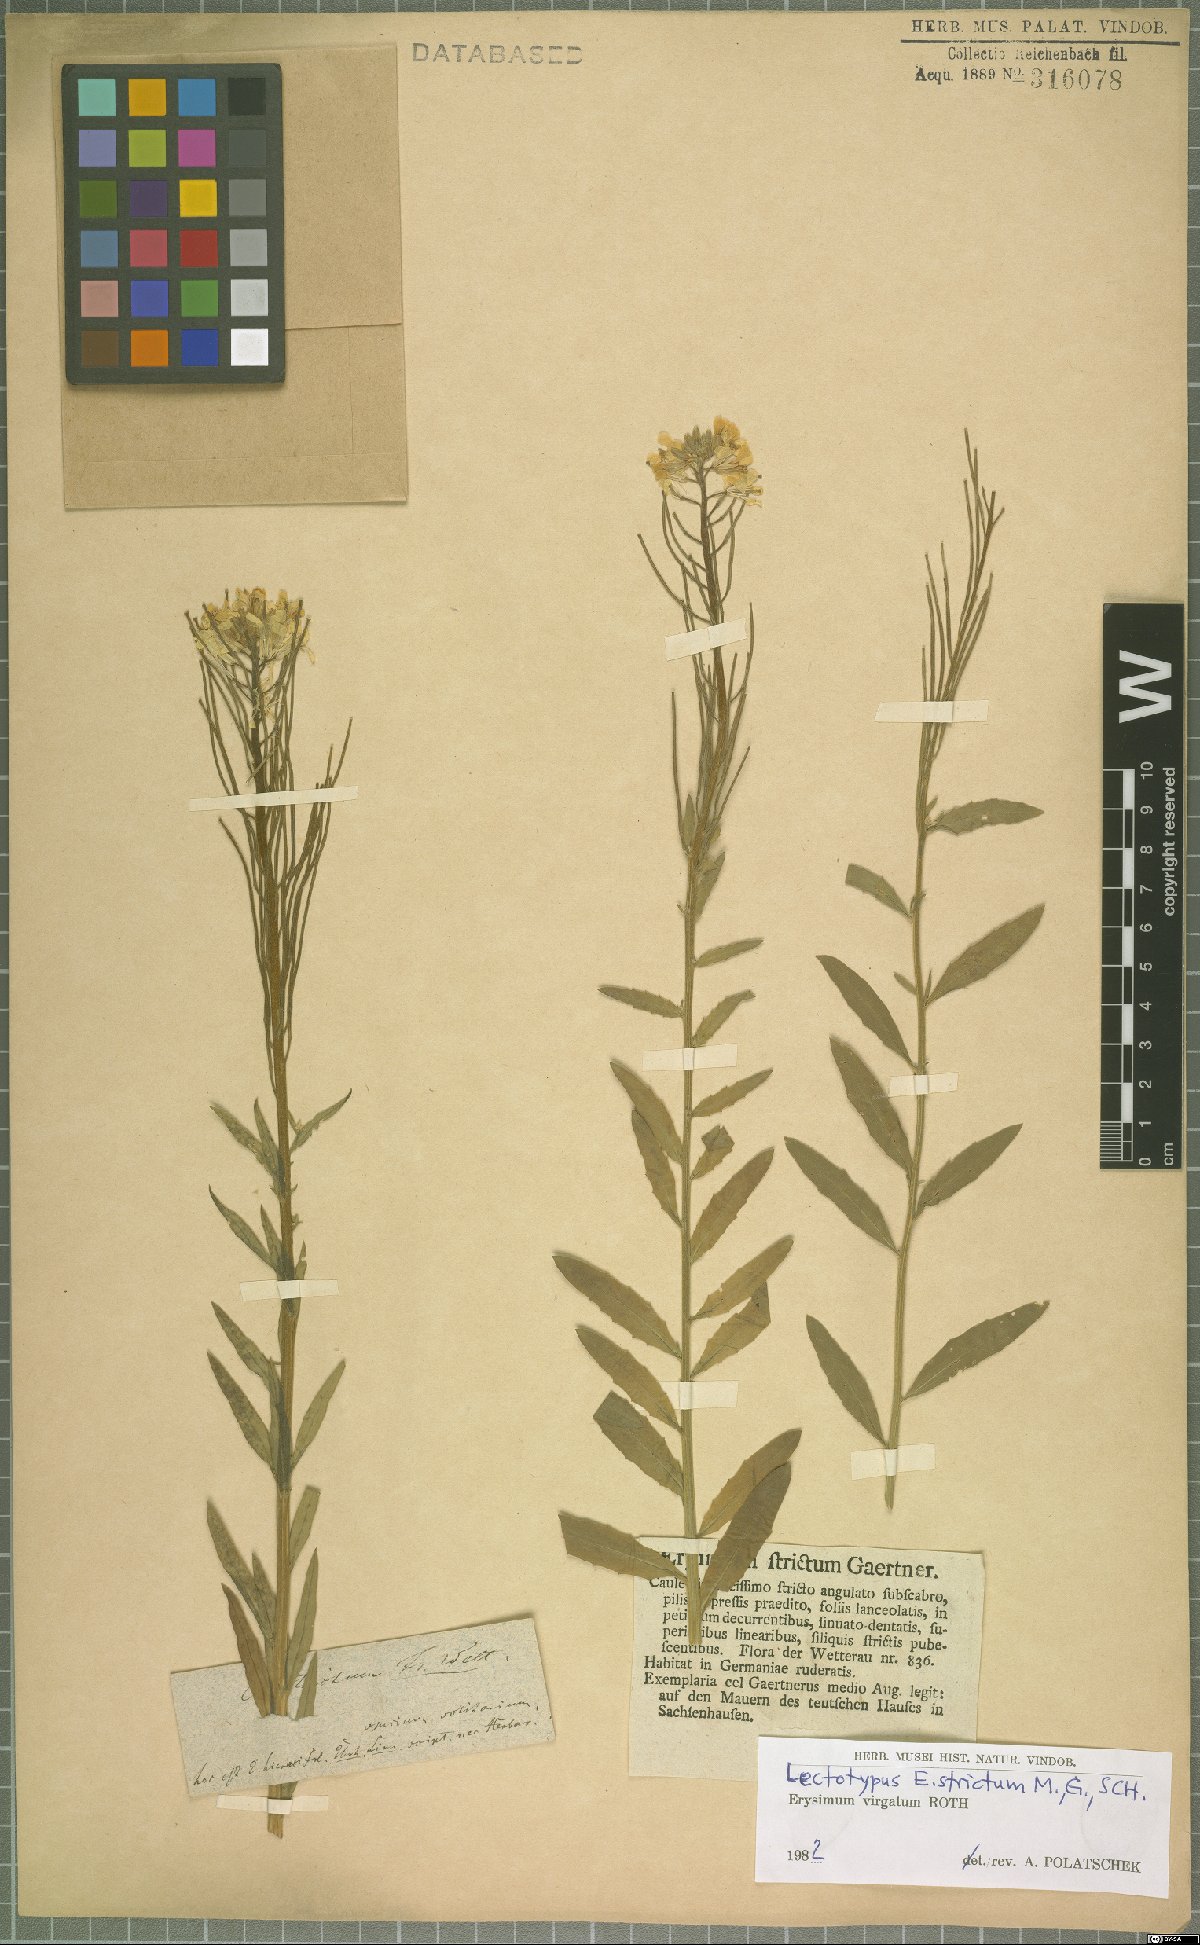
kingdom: Plantae
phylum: Tracheophyta
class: Magnoliopsida
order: Brassicales
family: Brassicaceae
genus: Erysimum
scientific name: Erysimum virgatum
